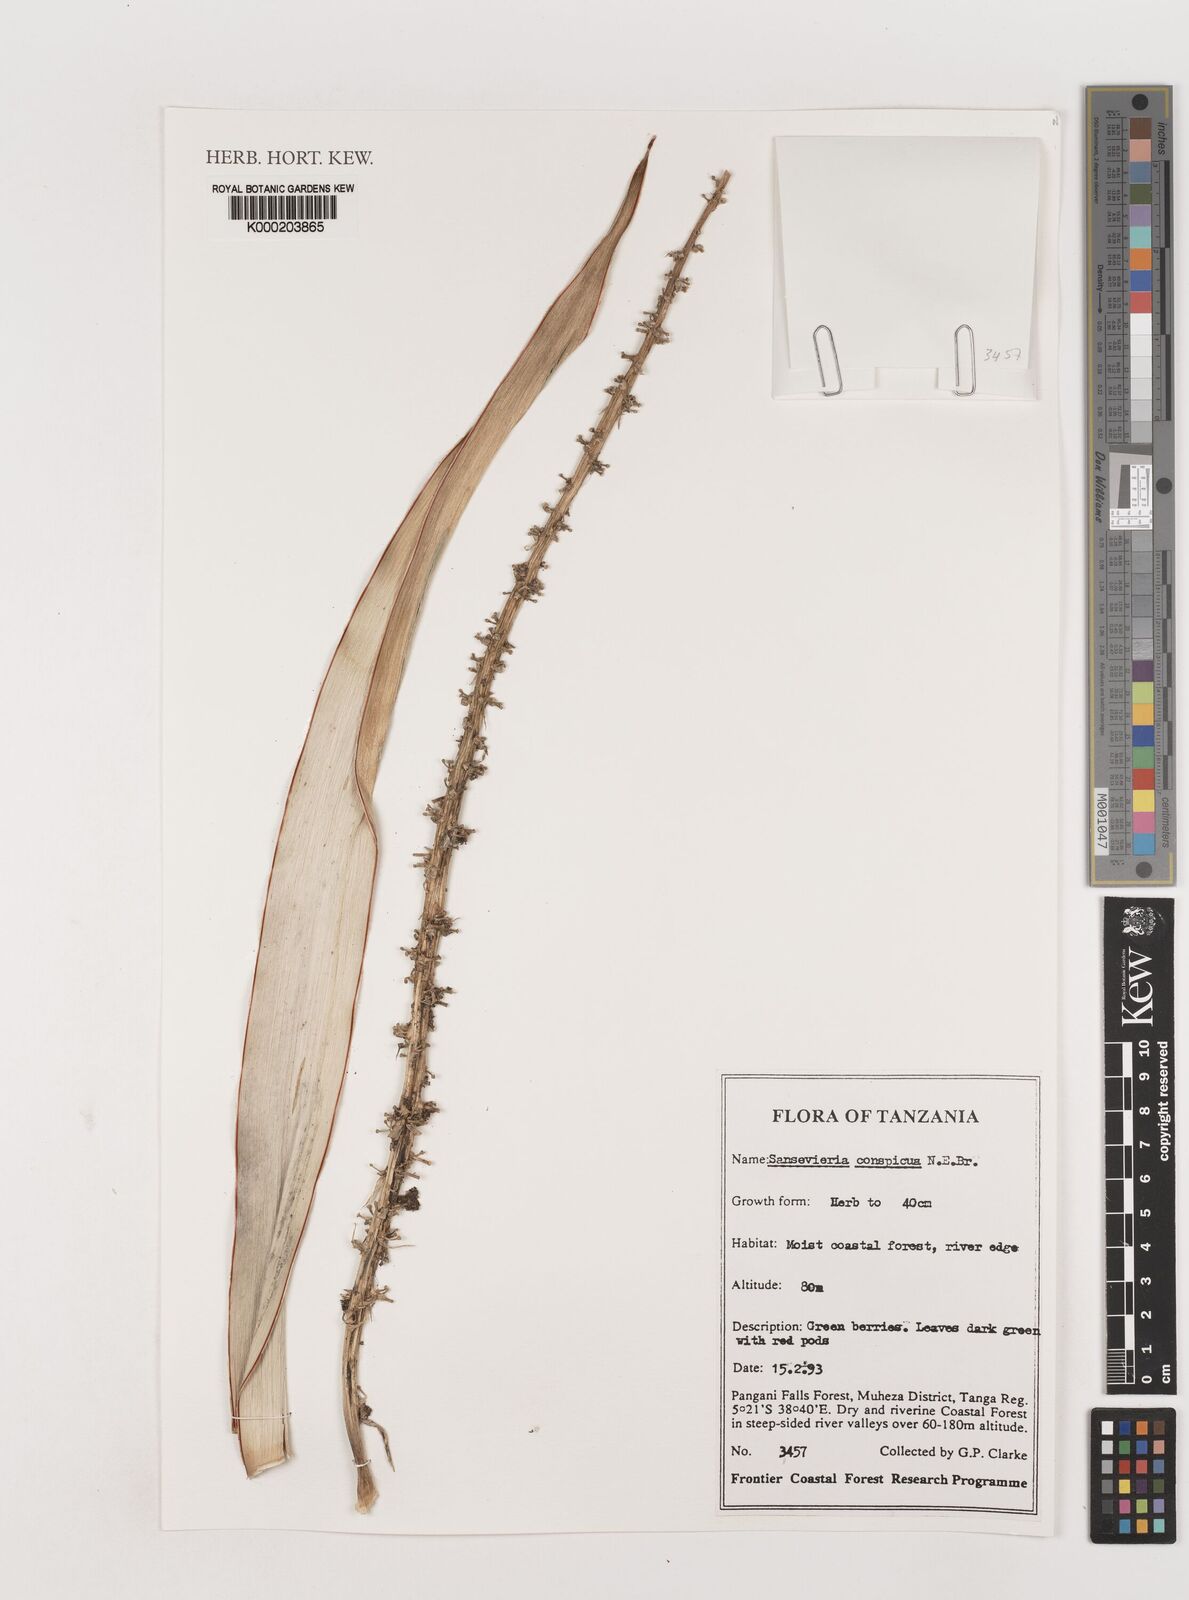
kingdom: Plantae
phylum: Tracheophyta
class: Liliopsida
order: Asparagales
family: Asparagaceae
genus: Dracaena
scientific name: Dracaena conspicua
